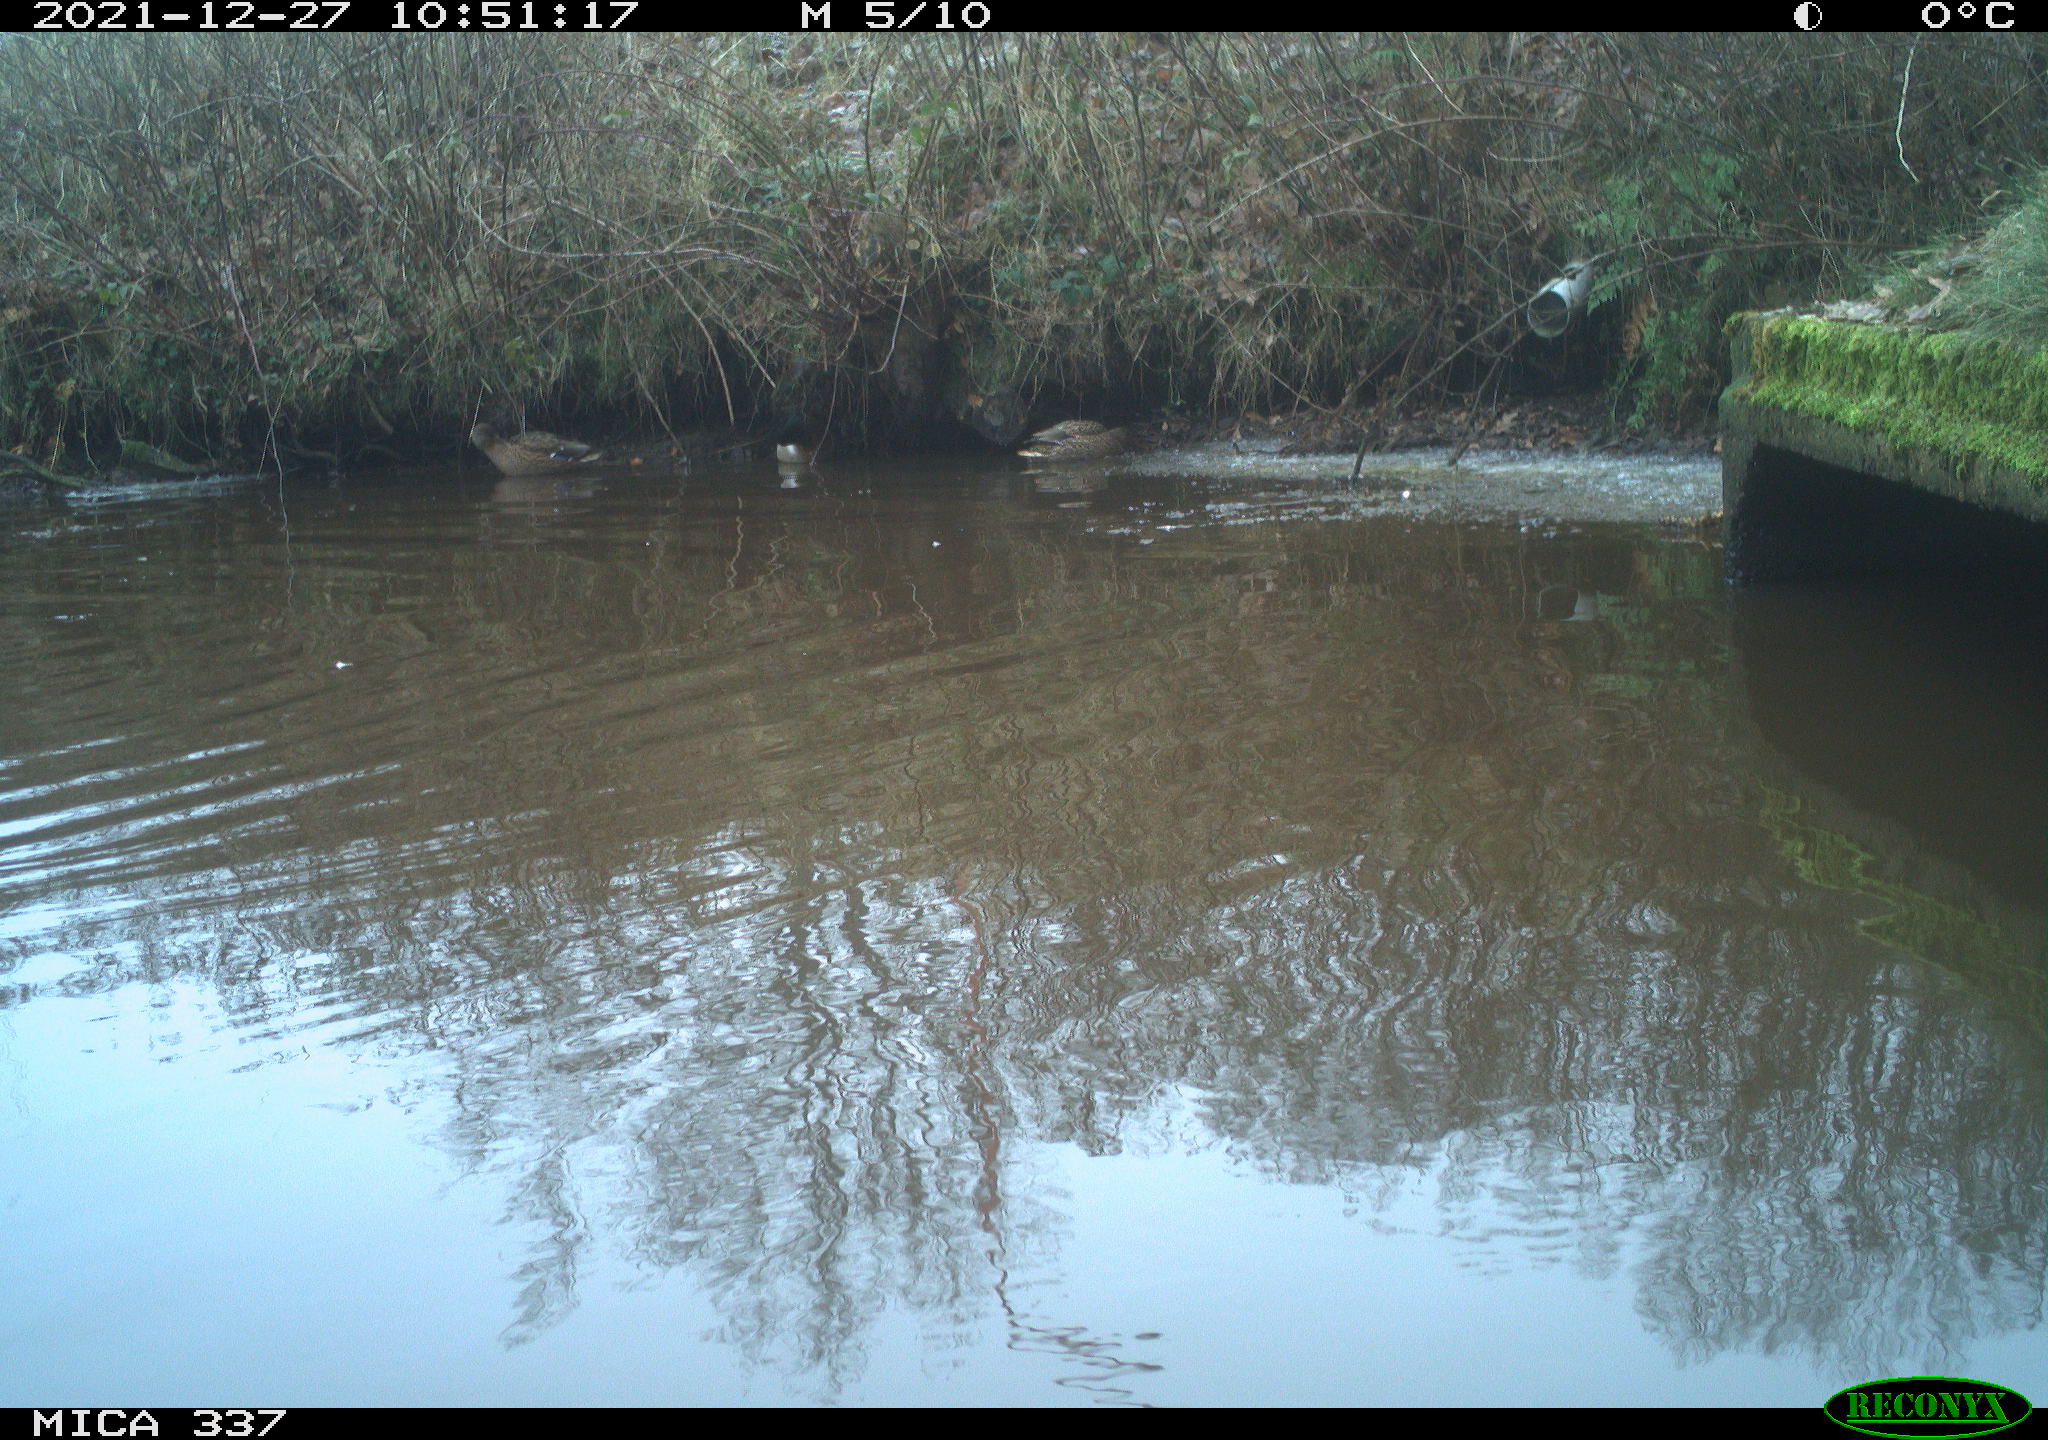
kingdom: Animalia
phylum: Chordata
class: Aves
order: Anseriformes
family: Anatidae
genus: Anas
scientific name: Anas platyrhynchos
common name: Mallard
